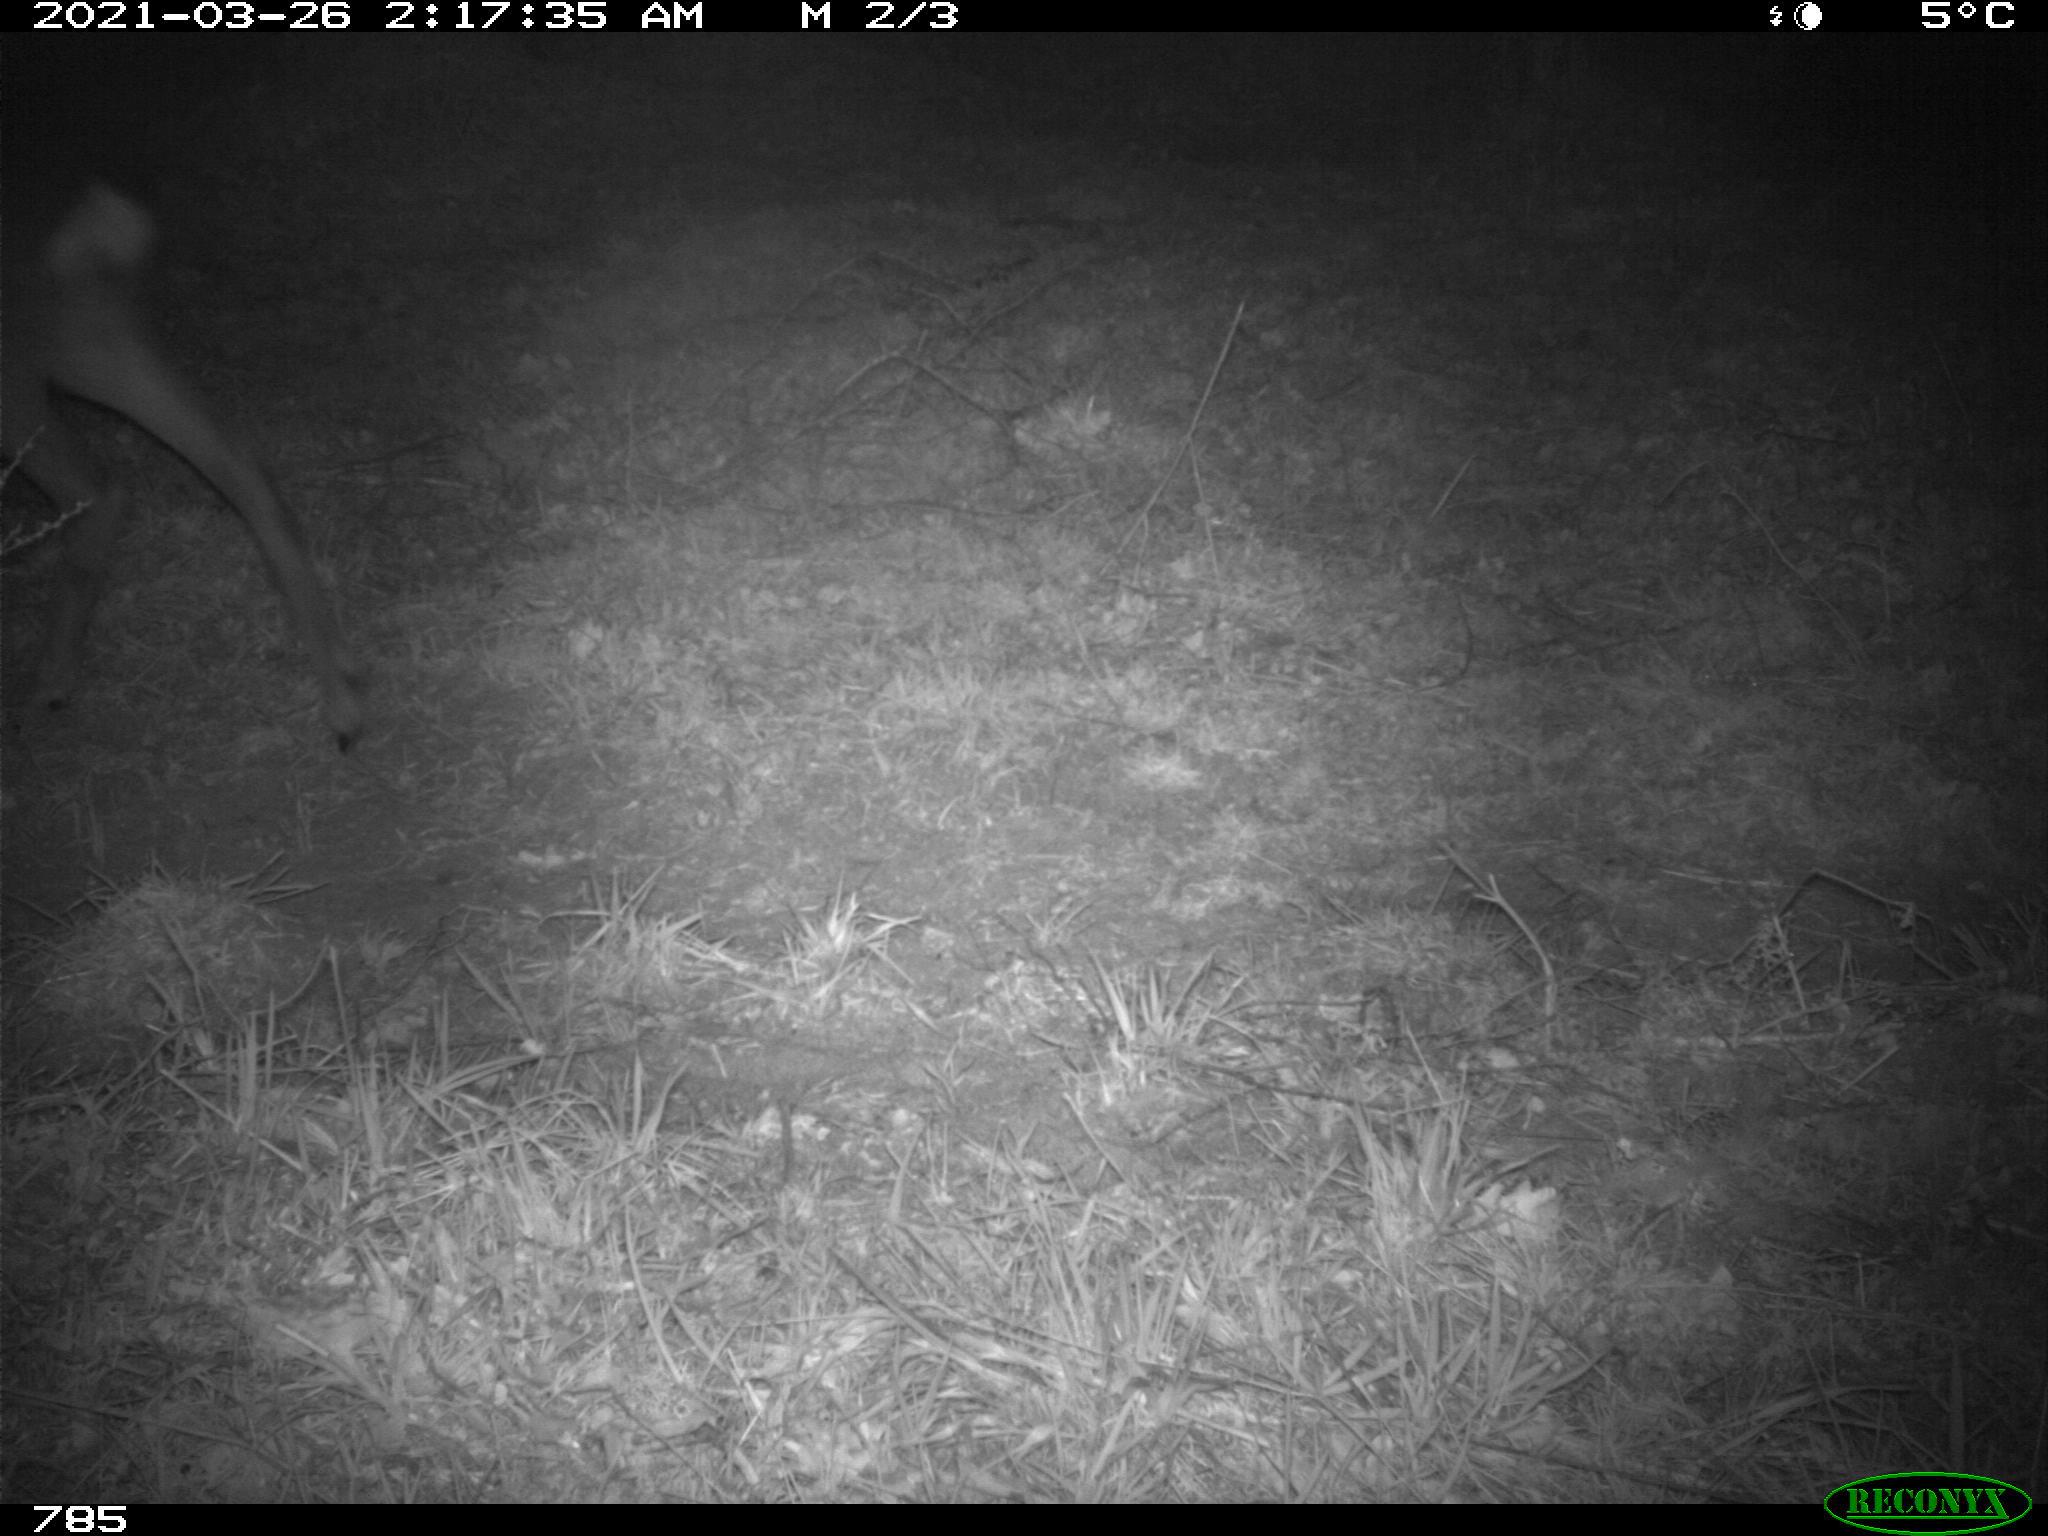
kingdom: Animalia
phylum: Chordata
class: Mammalia
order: Artiodactyla
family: Cervidae
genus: Capreolus
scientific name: Capreolus capreolus
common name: Western roe deer
